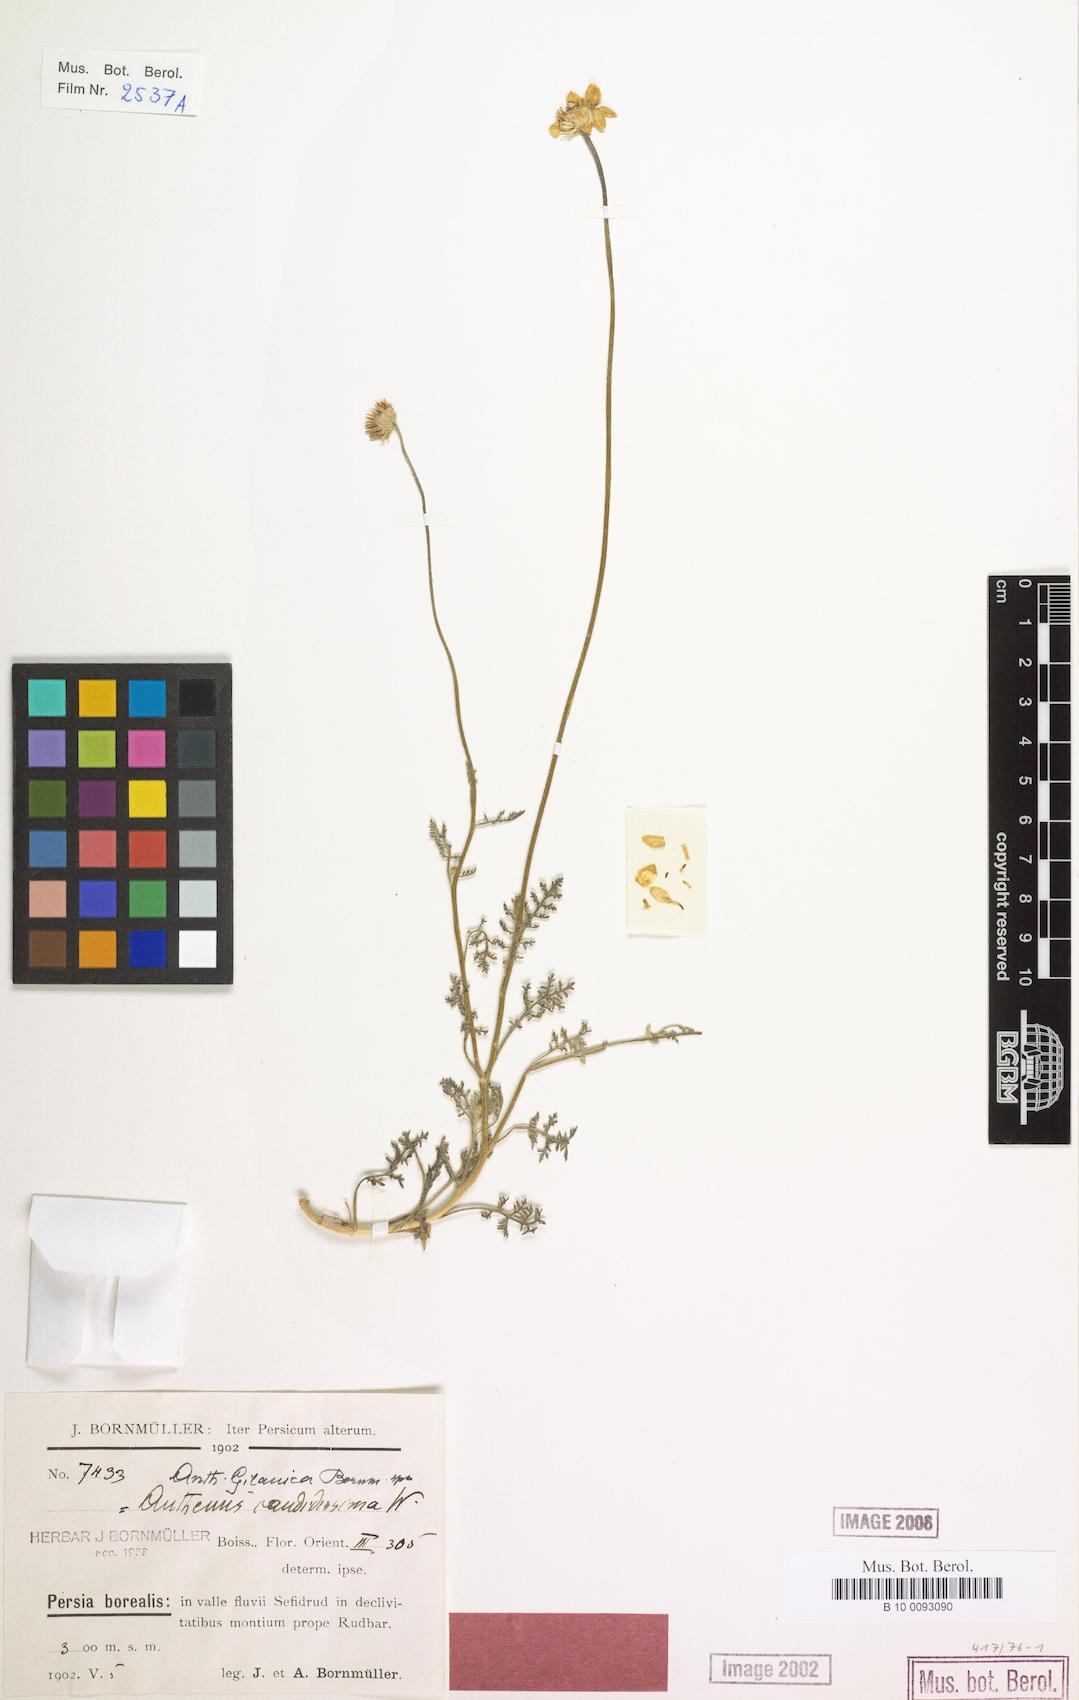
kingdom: Plantae
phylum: Tracheophyta
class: Magnoliopsida
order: Asterales
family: Asteraceae
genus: Anthemis
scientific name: Anthemis gilanica
